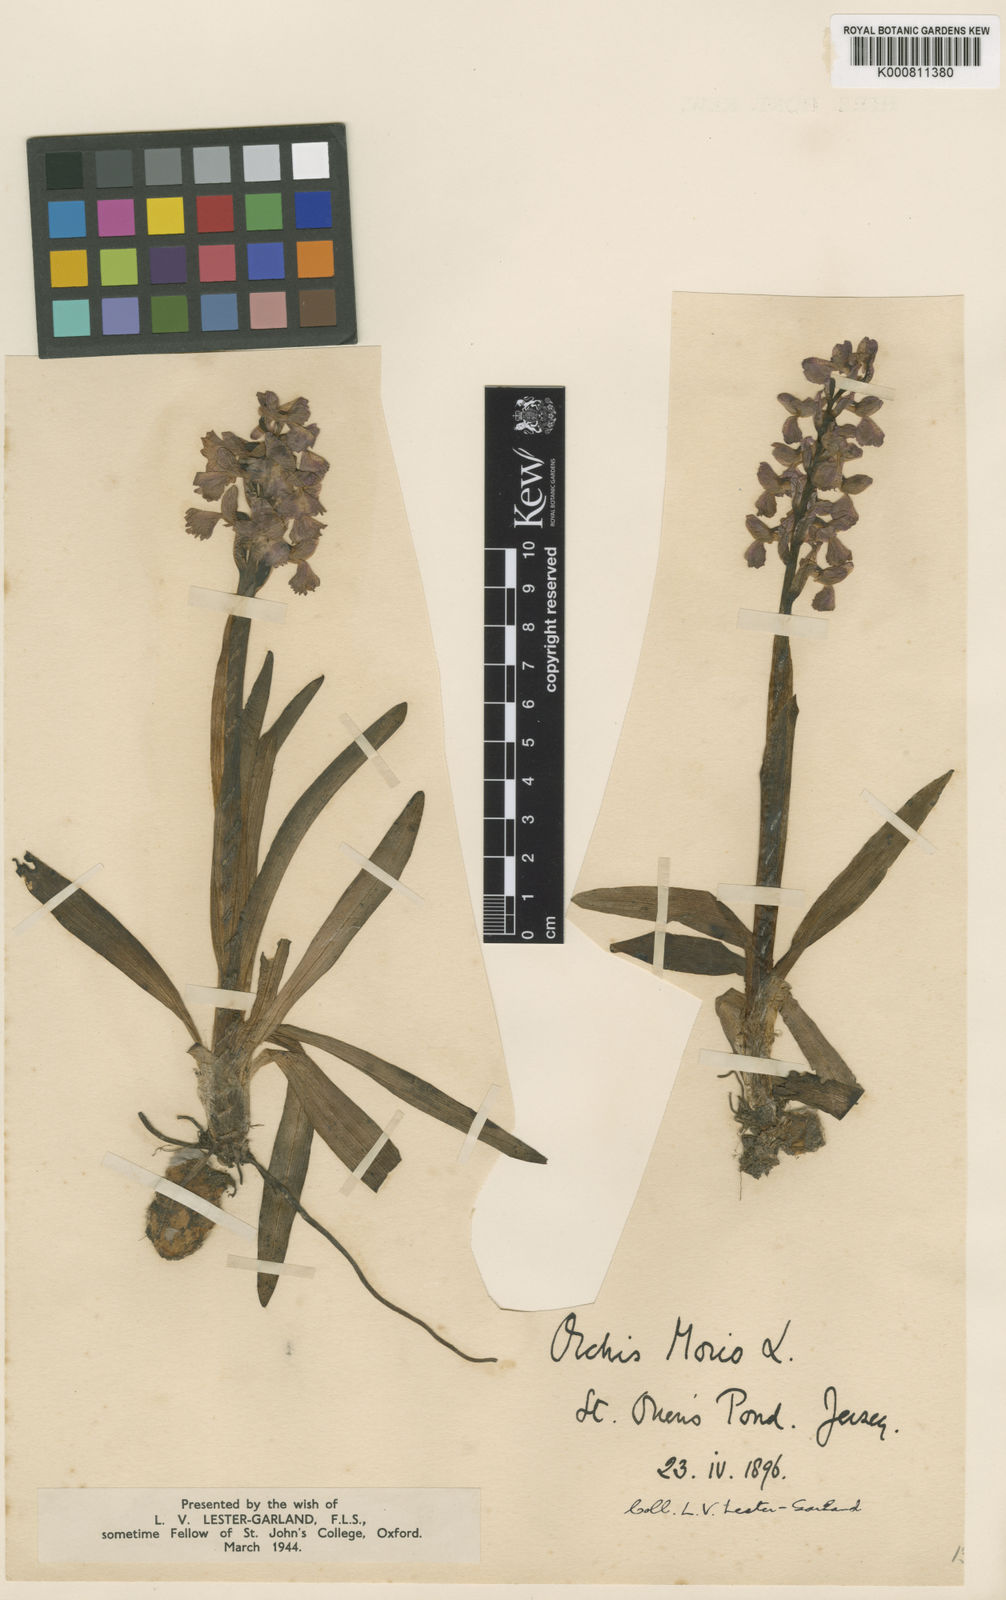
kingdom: Plantae
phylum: Tracheophyta
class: Liliopsida
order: Asparagales
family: Orchidaceae
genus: Anacamptis
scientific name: Anacamptis morio
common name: Green-winged orchid
